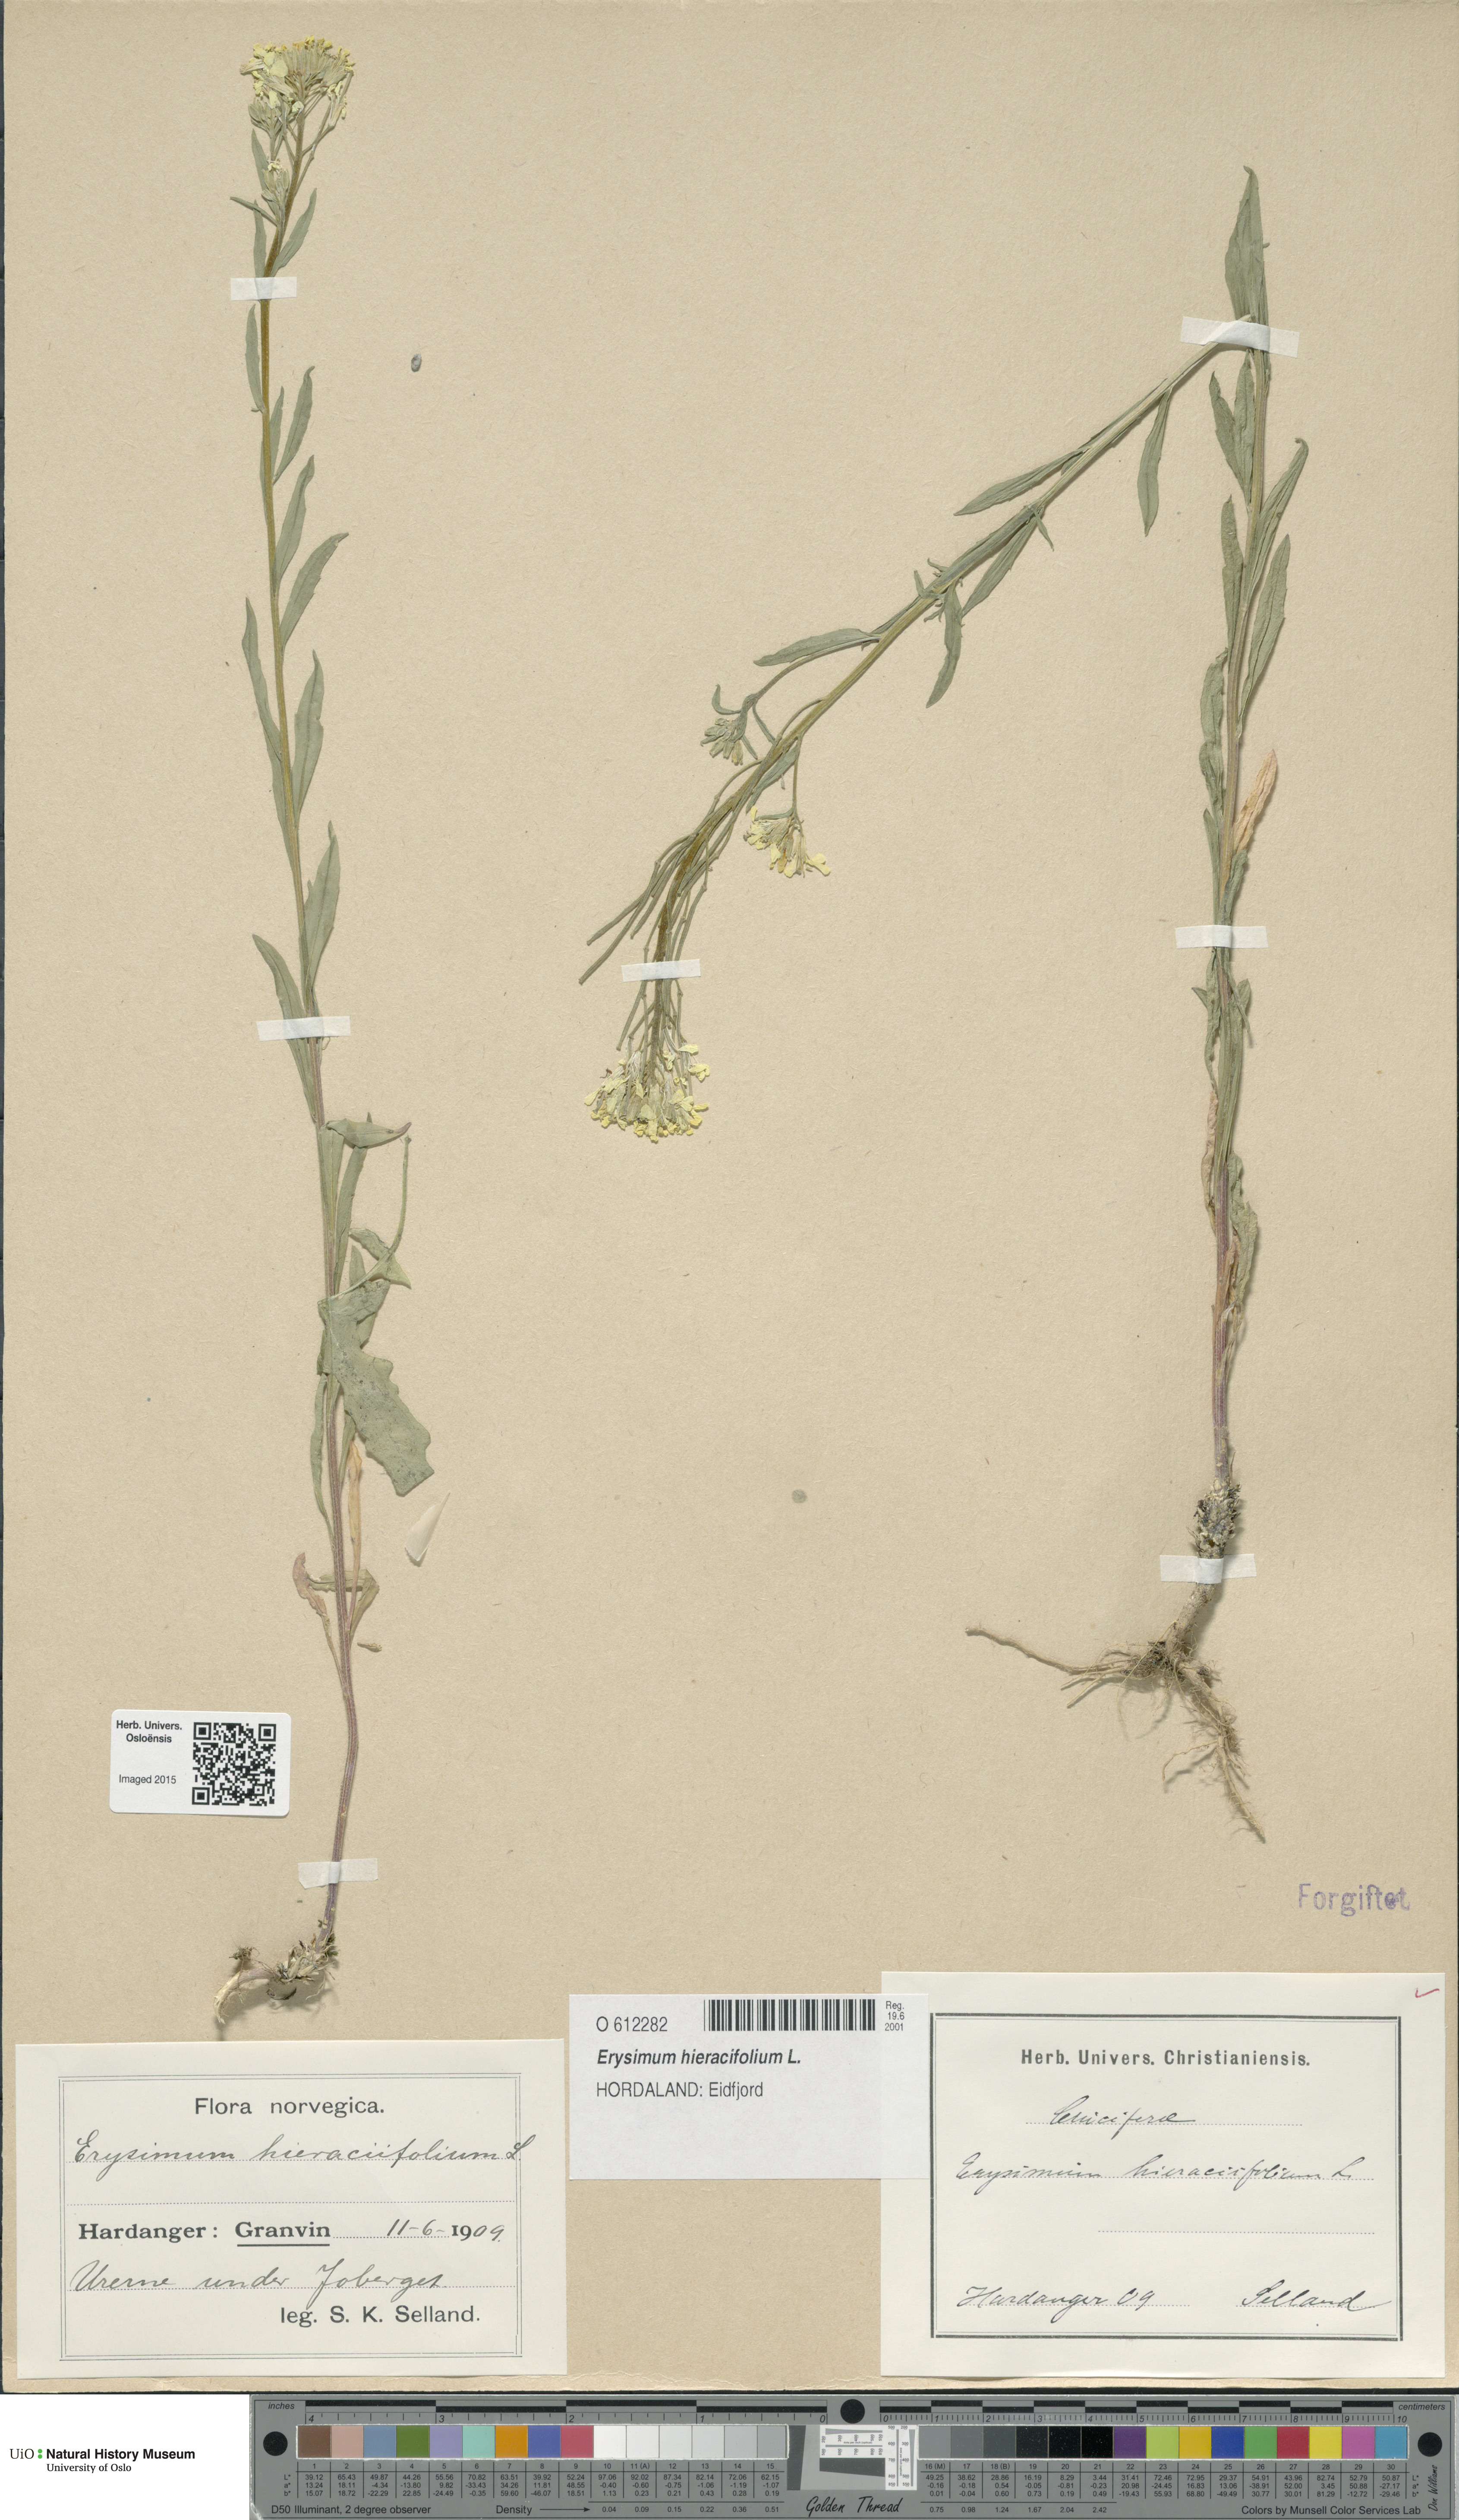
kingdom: Plantae
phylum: Tracheophyta
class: Magnoliopsida
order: Brassicales
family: Brassicaceae
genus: Erysimum
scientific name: Erysimum hieraciifolium
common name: European wallflower
